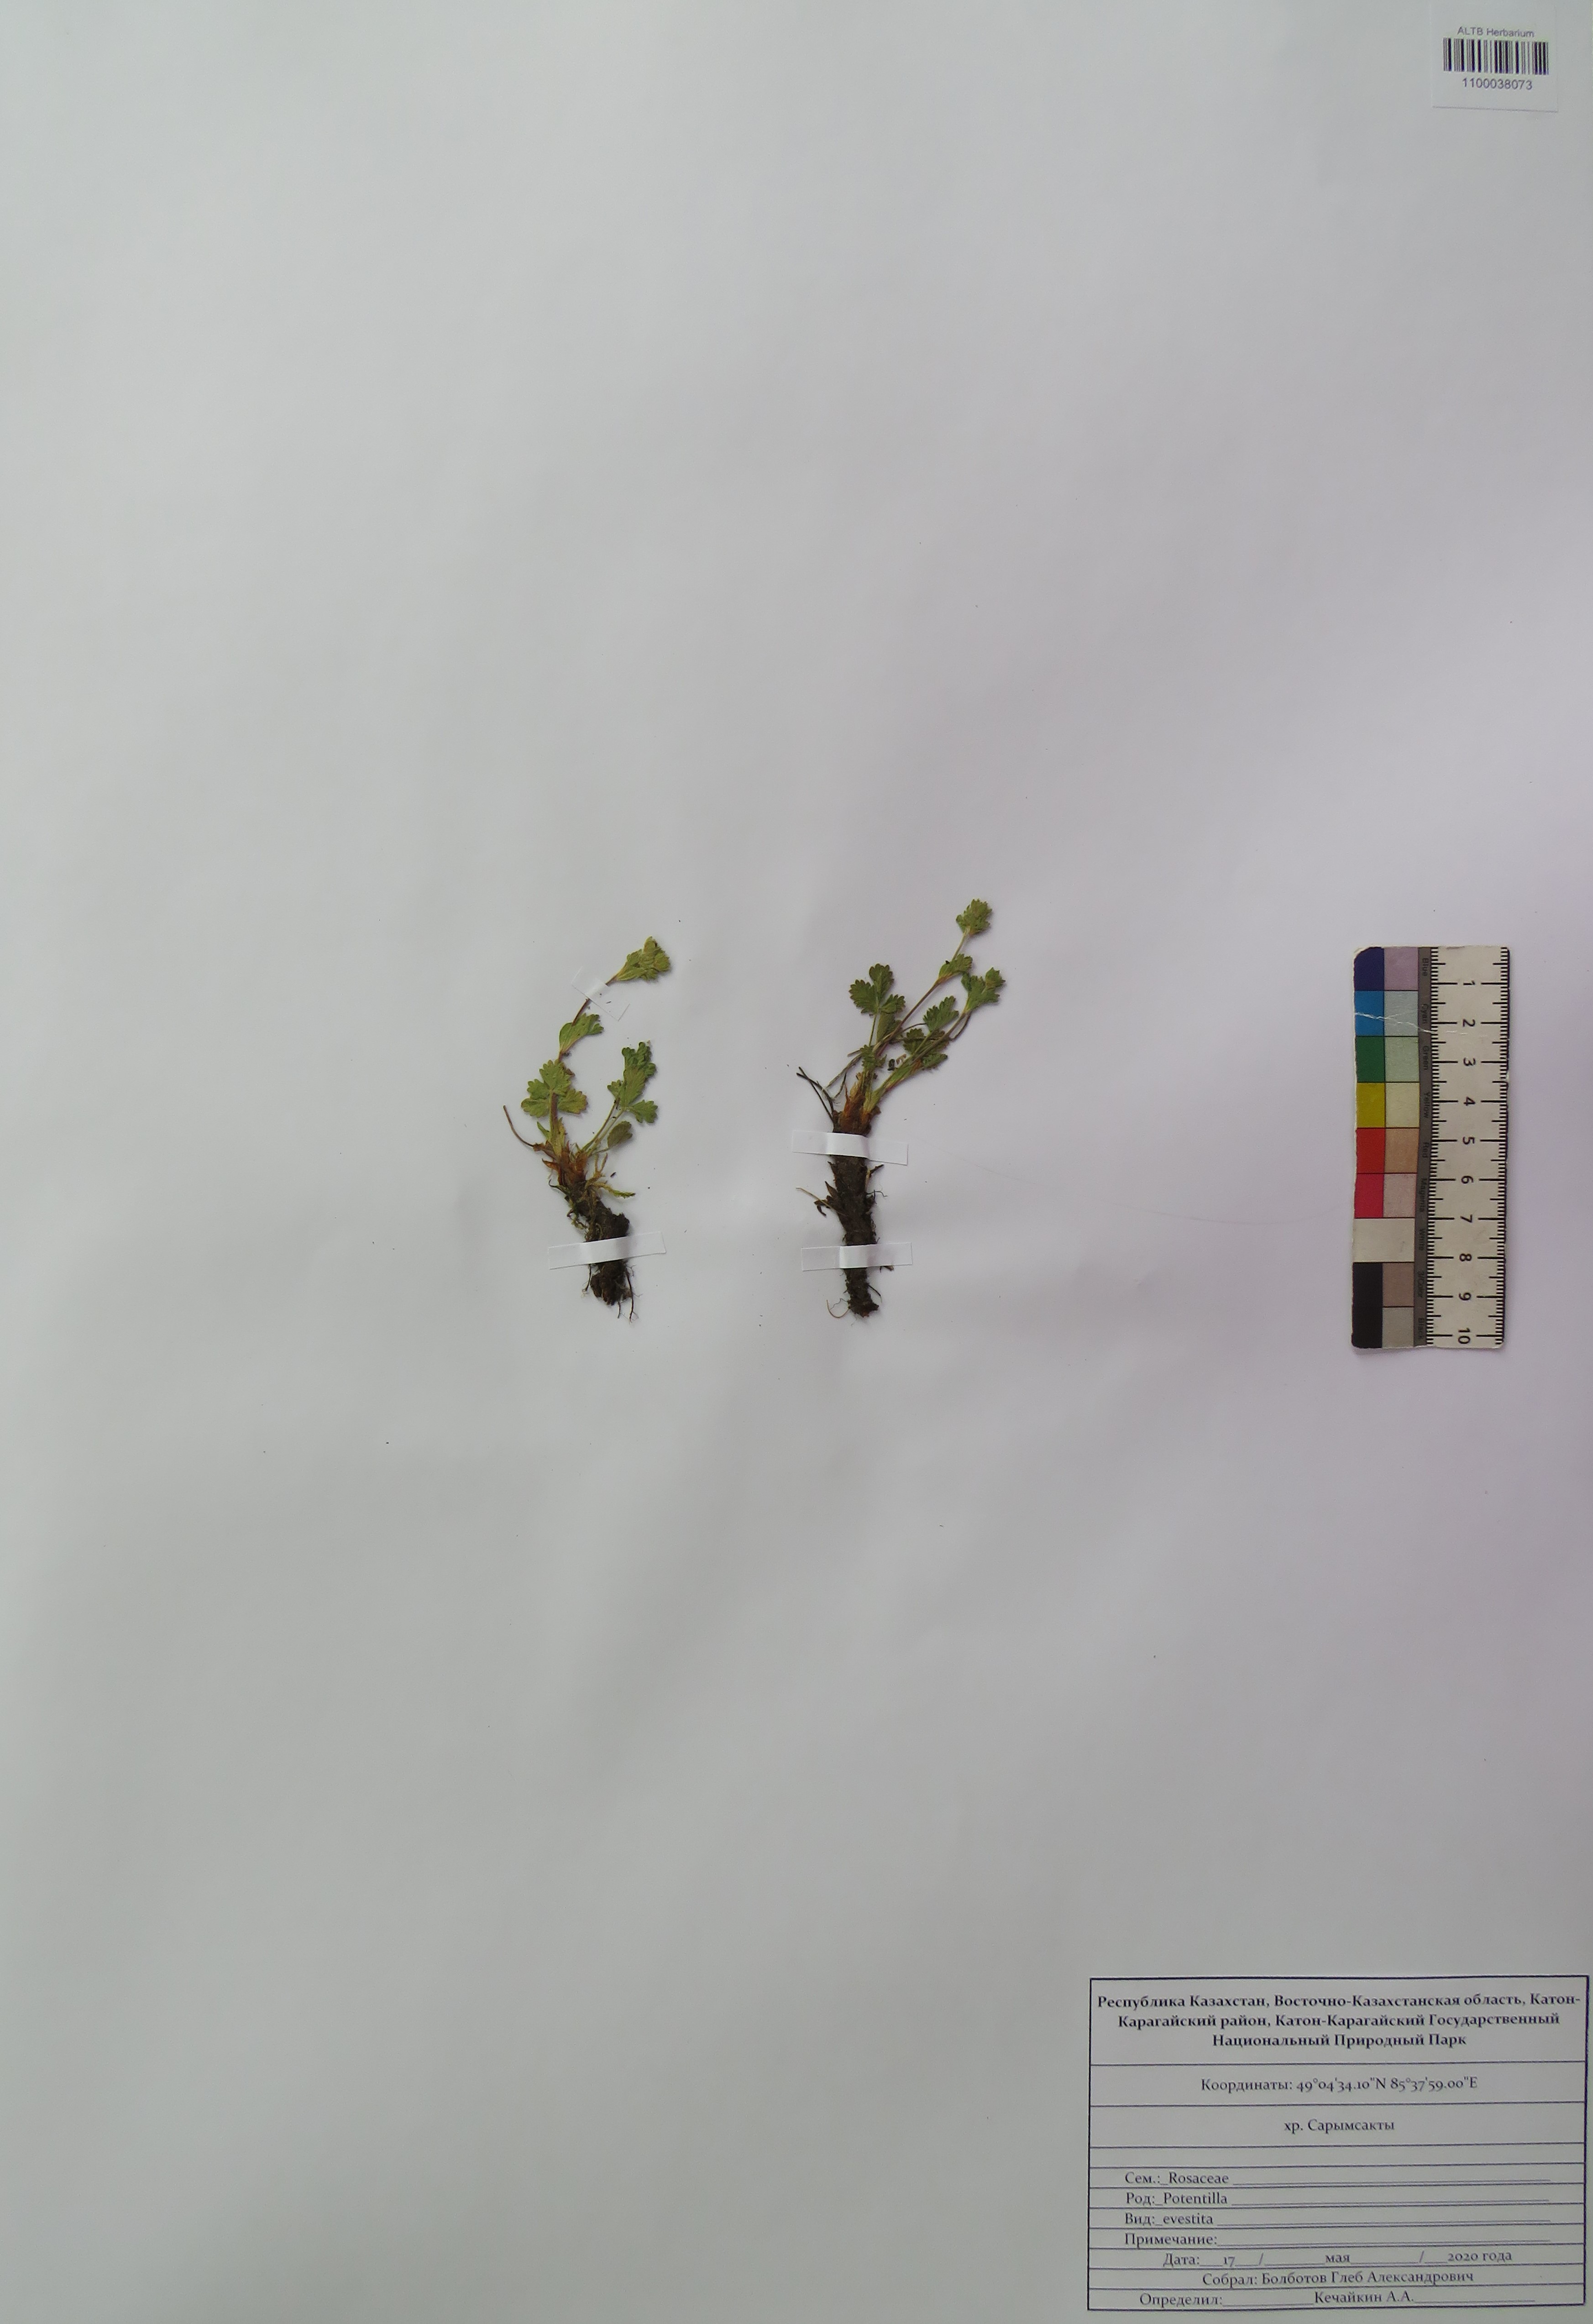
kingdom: Plantae
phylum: Tracheophyta
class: Magnoliopsida
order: Rosales
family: Rosaceae
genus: Potentilla
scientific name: Potentilla evestita
